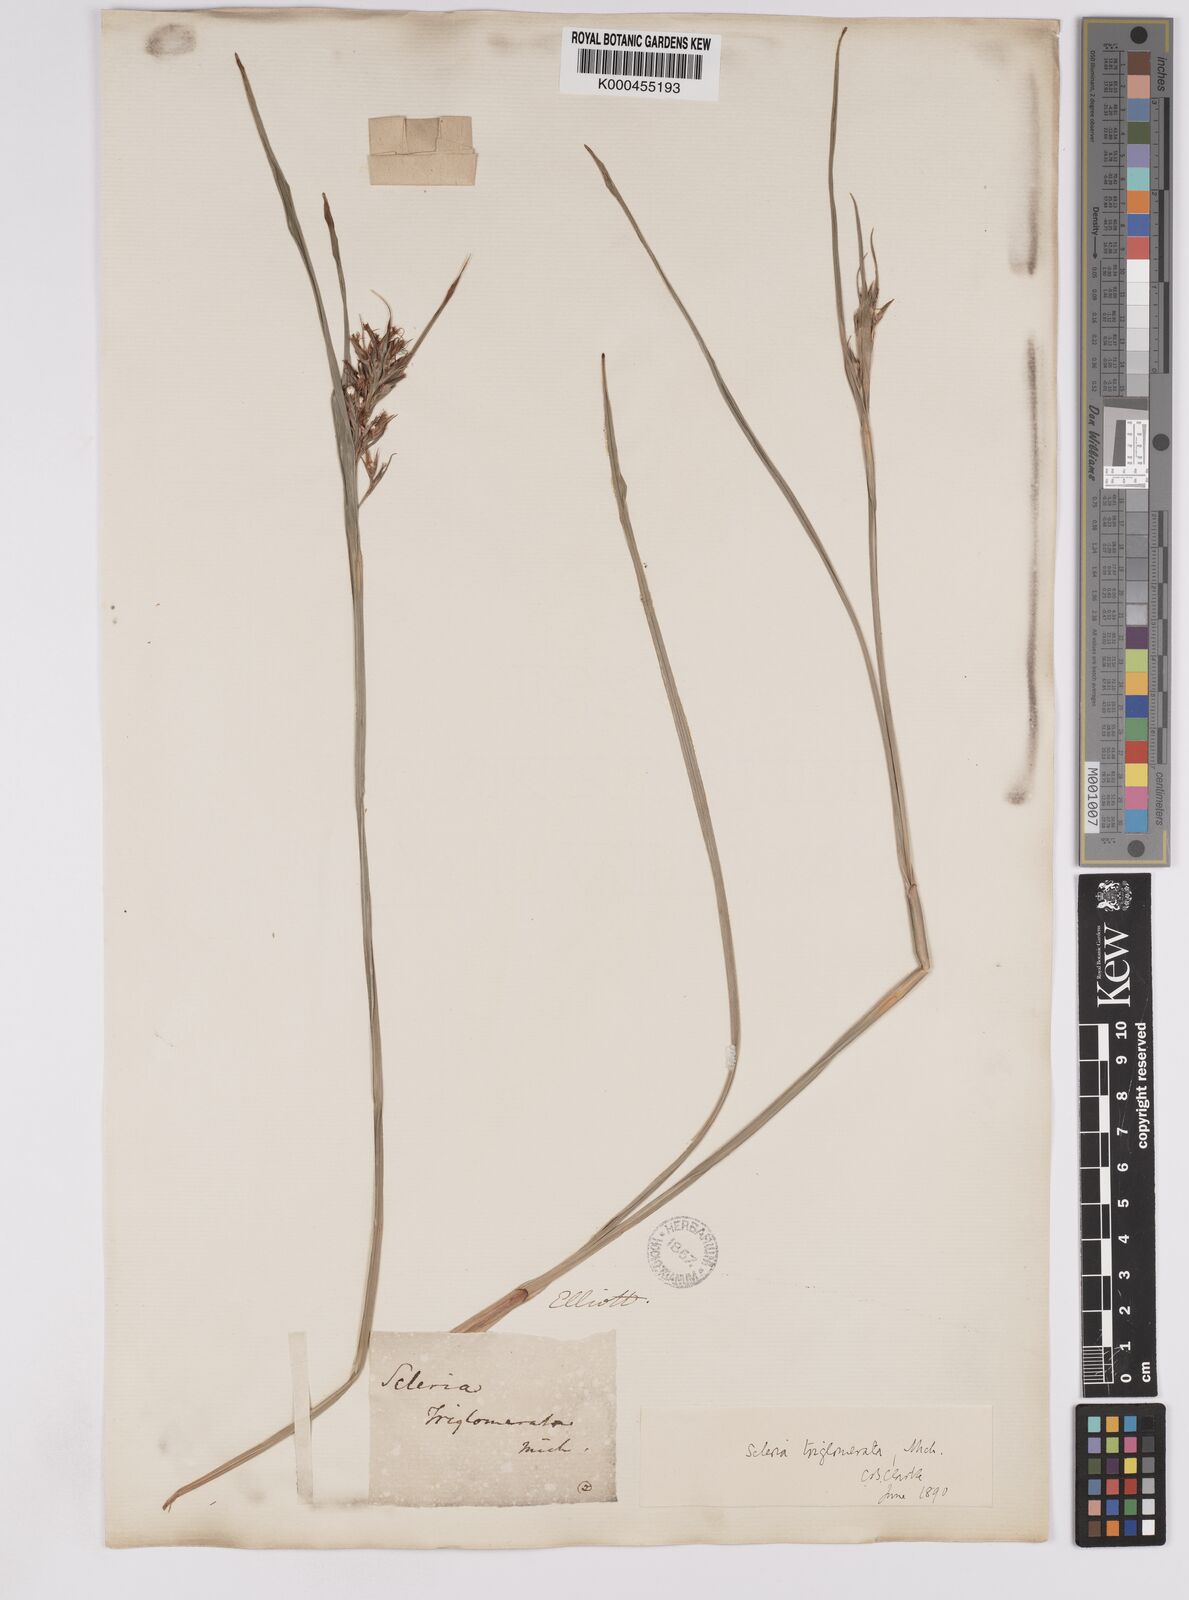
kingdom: Plantae
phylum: Tracheophyta
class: Liliopsida
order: Poales
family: Cyperaceae
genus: Scleria
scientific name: Scleria triglomerata
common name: Whip nutrush
